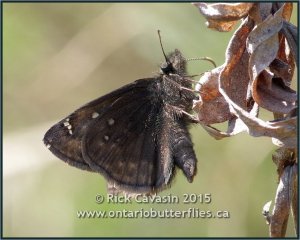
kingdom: Animalia
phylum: Arthropoda
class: Insecta
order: Lepidoptera
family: Hesperiidae
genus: Gesta
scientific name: Gesta
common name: Juvenal's Duskywing
